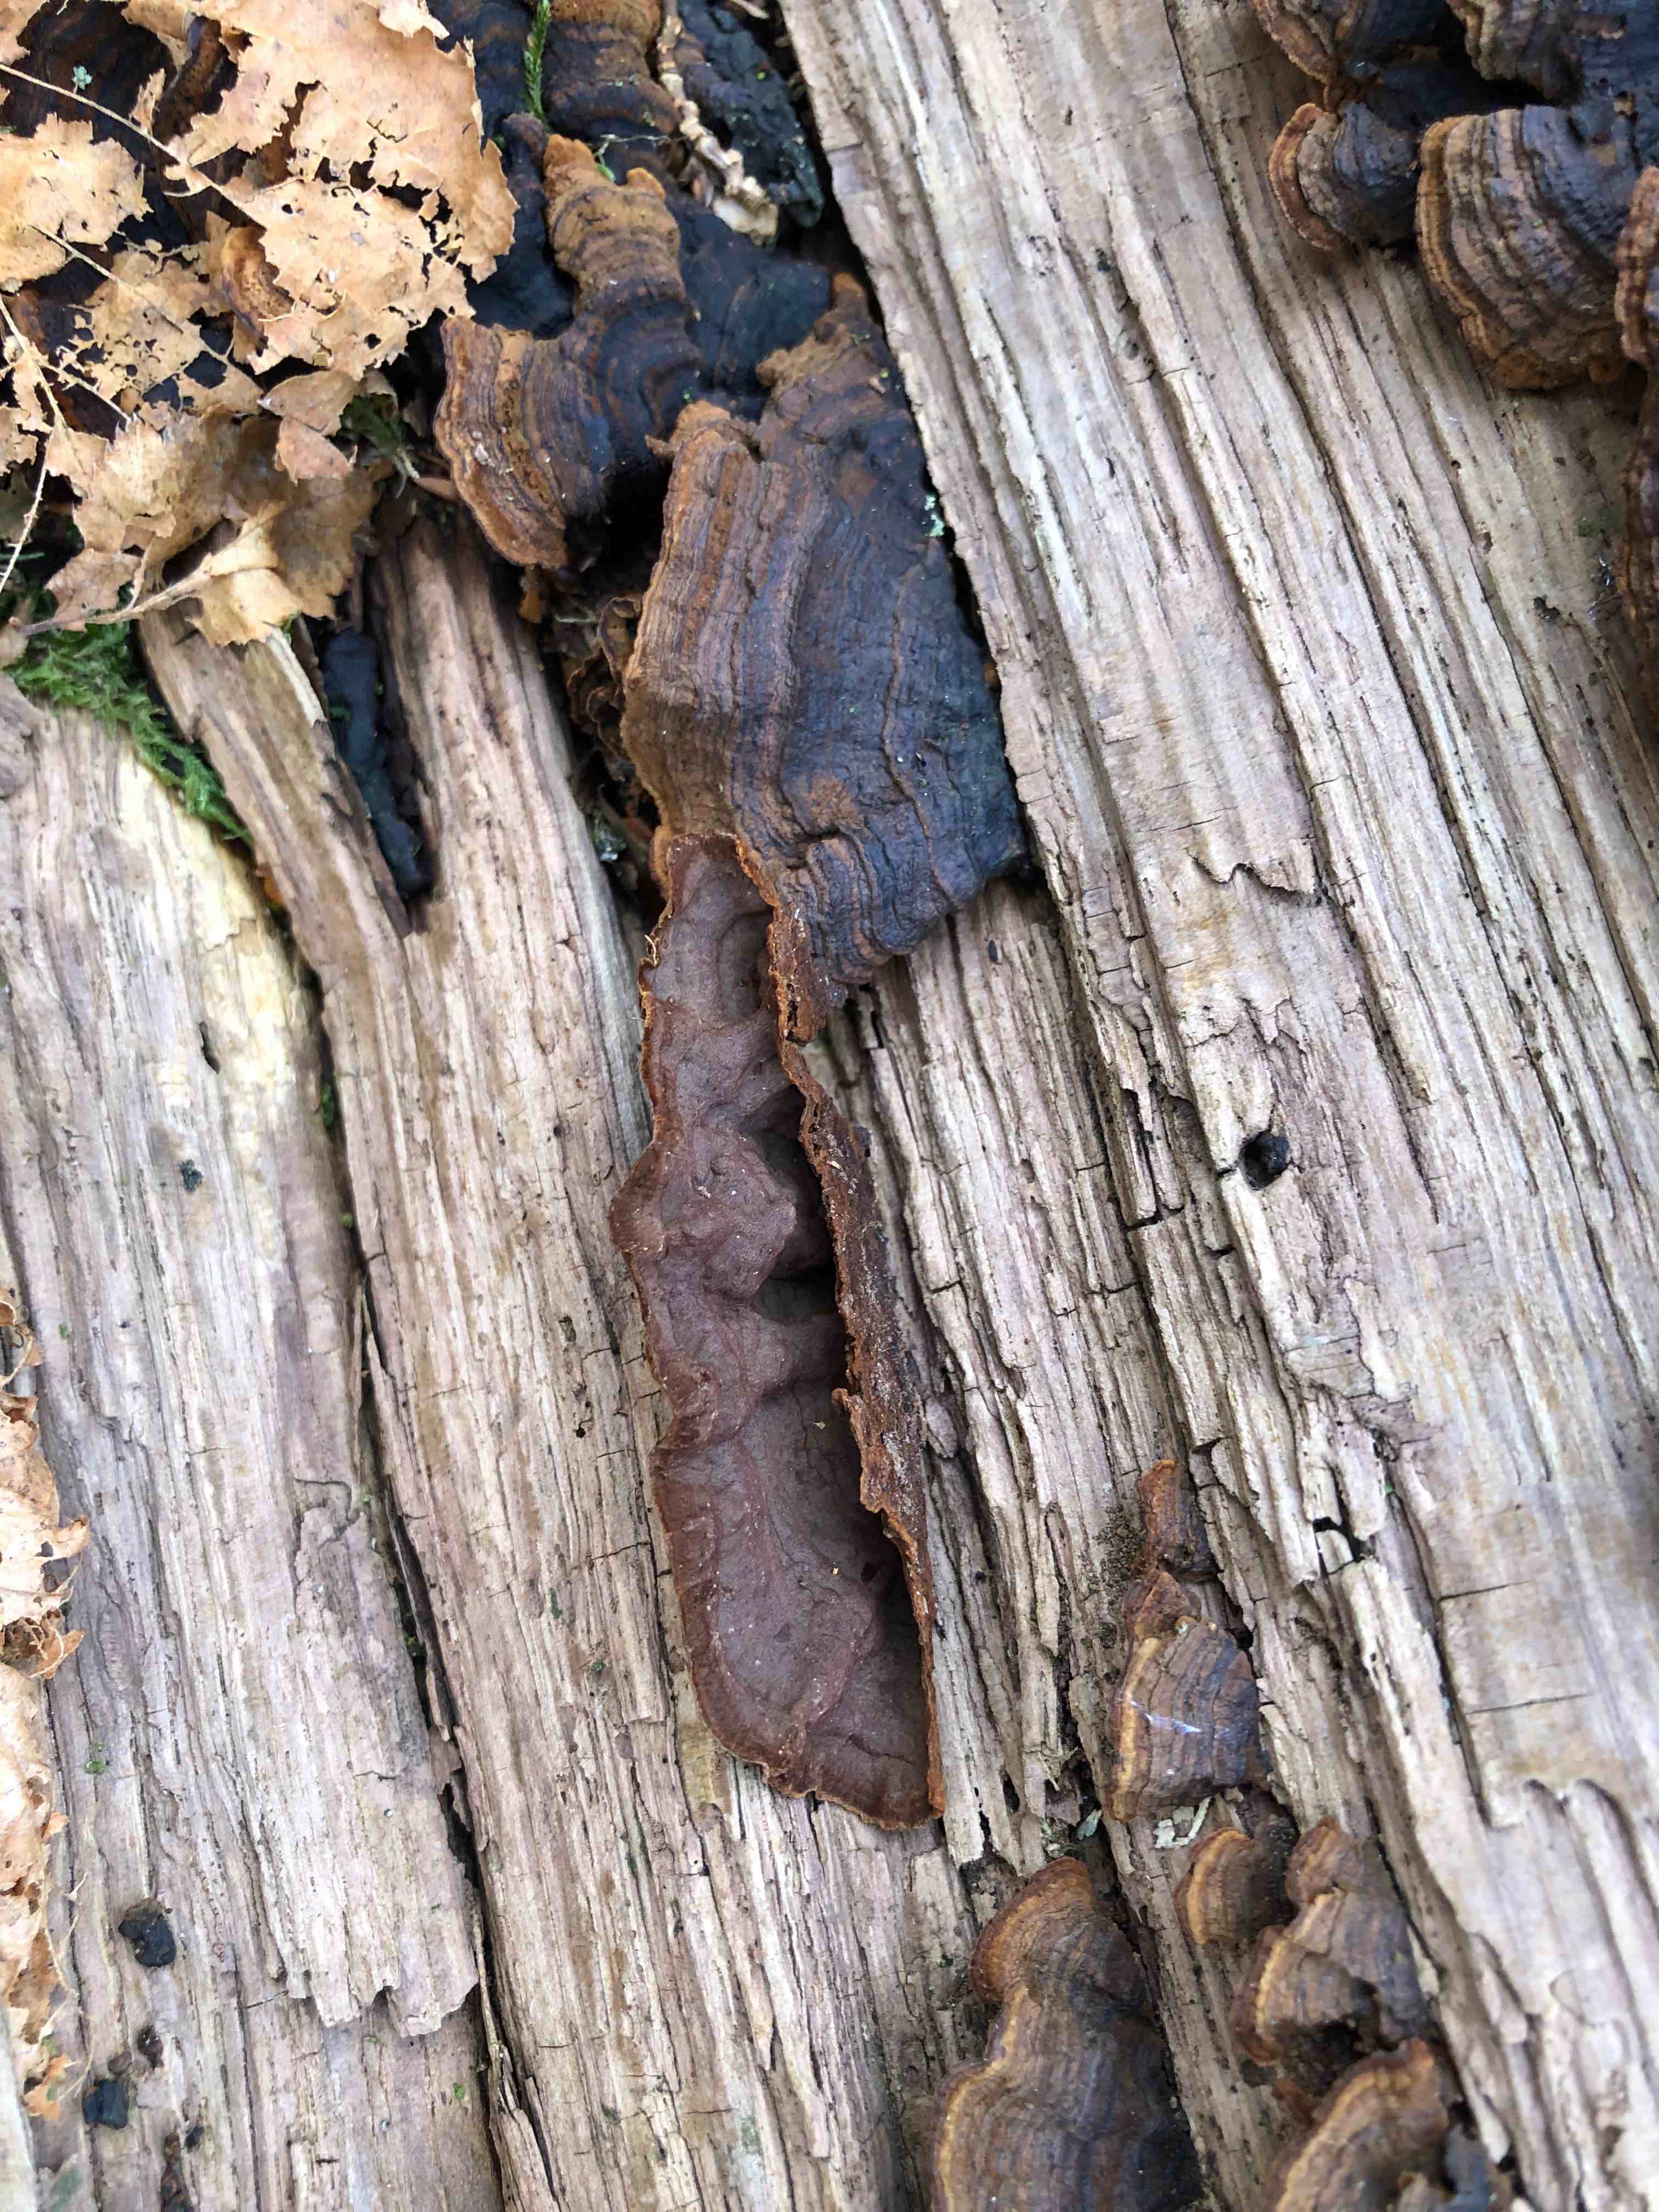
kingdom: Fungi
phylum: Basidiomycota
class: Agaricomycetes
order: Hymenochaetales
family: Hymenochaetaceae
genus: Hymenochaete
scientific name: Hymenochaete rubiginosa
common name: stiv ruslædersvamp
